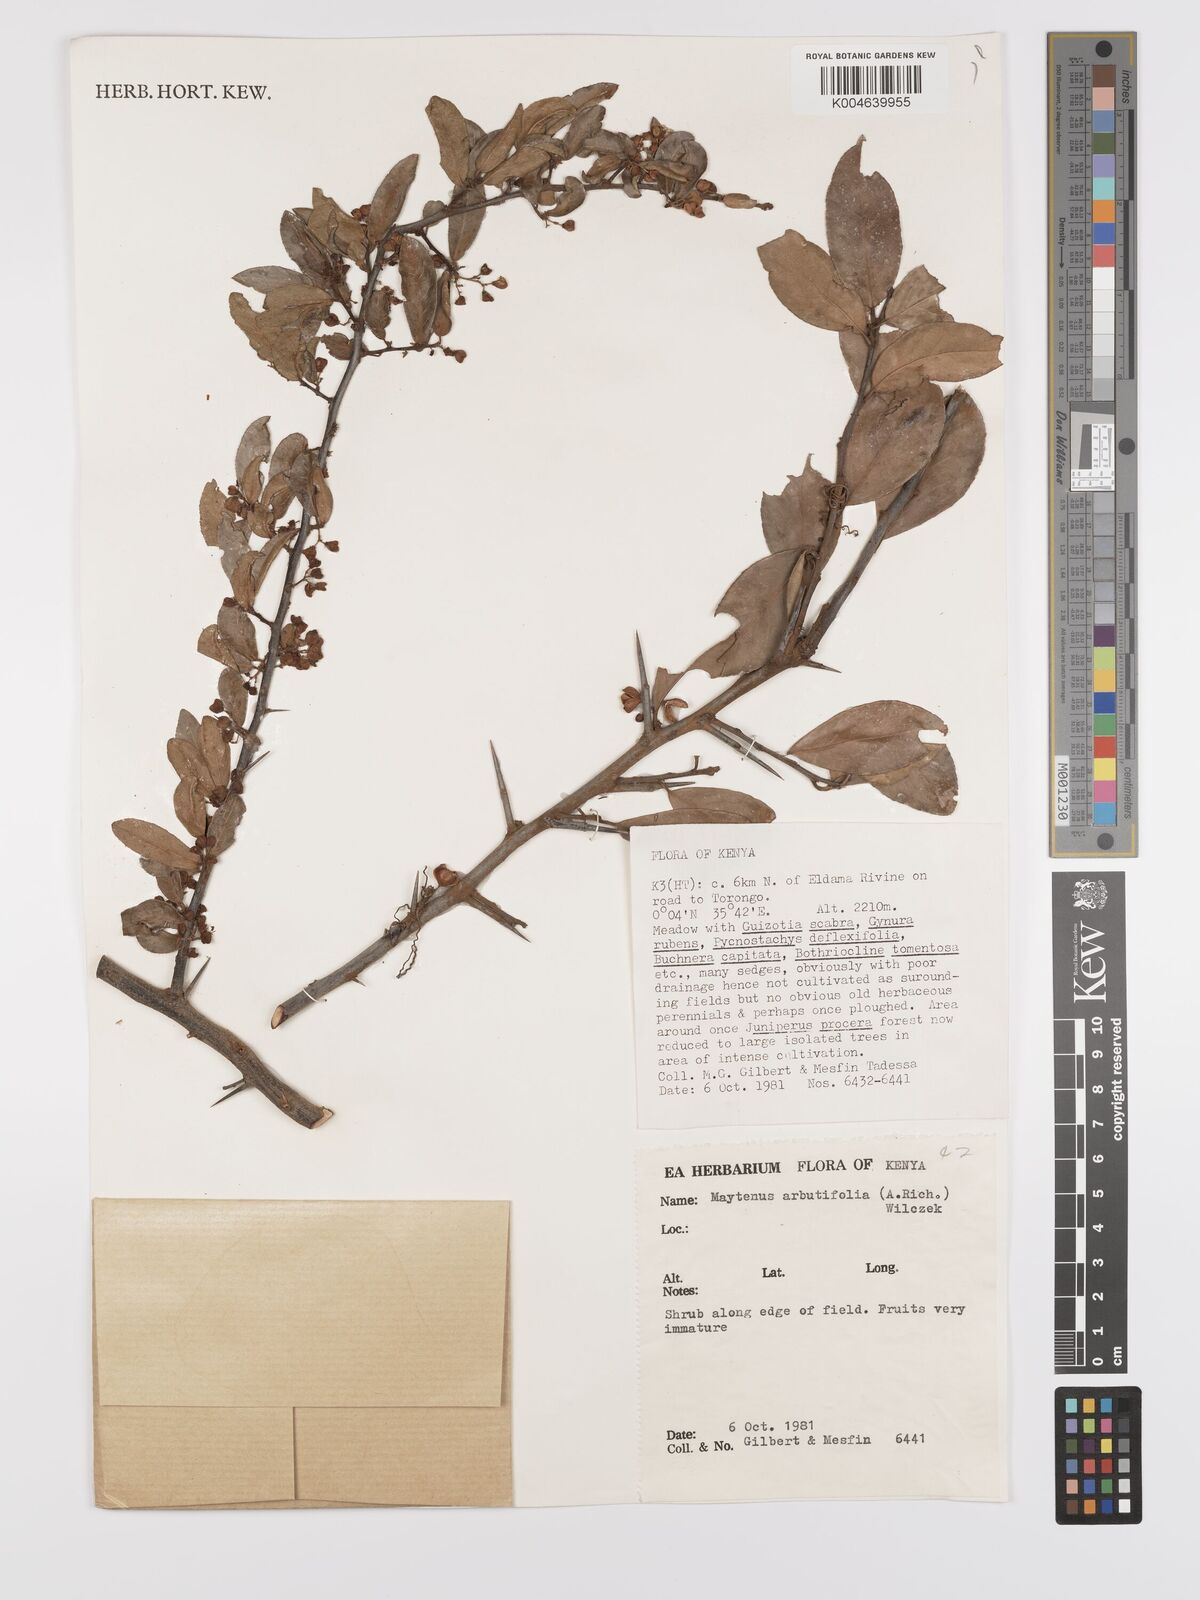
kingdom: Plantae
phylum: Tracheophyta
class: Magnoliopsida
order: Celastrales
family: Celastraceae
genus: Gymnosporia
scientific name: Gymnosporia arbutifolia
